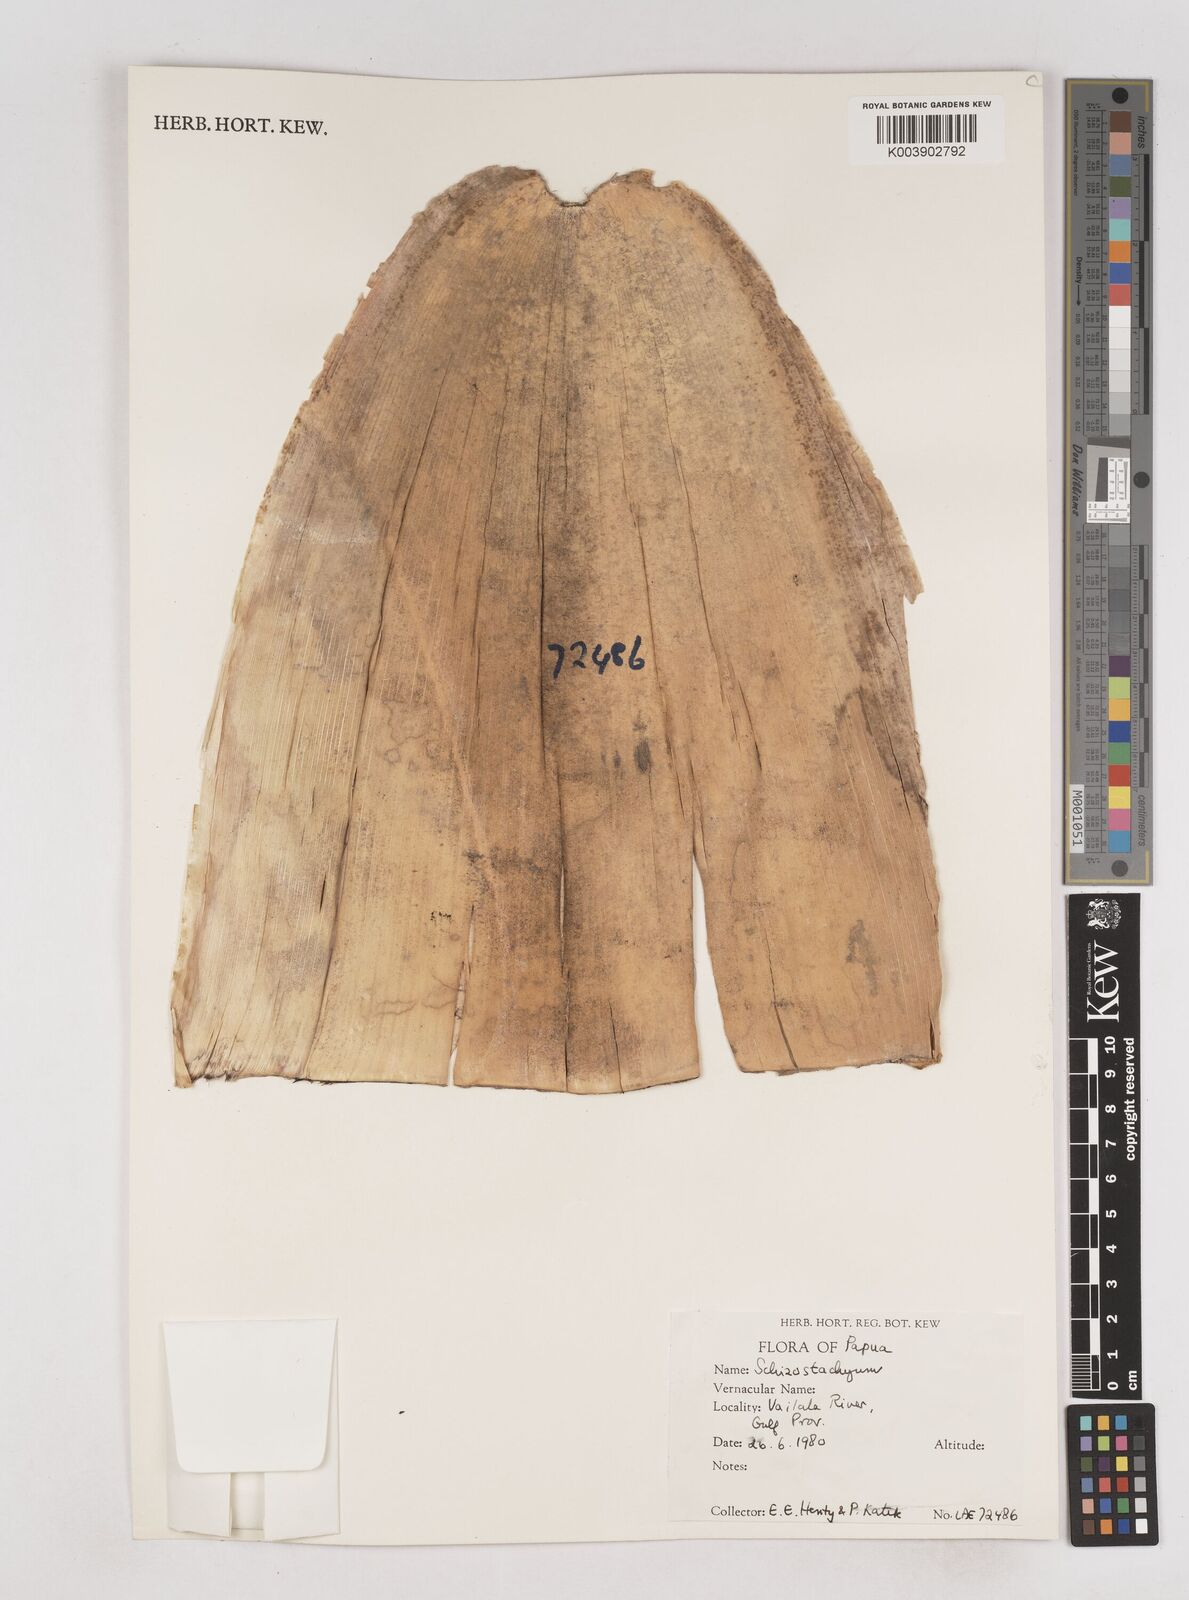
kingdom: Plantae
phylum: Tracheophyta
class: Liliopsida
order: Poales
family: Poaceae
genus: Schizostachyum
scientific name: Schizostachyum
